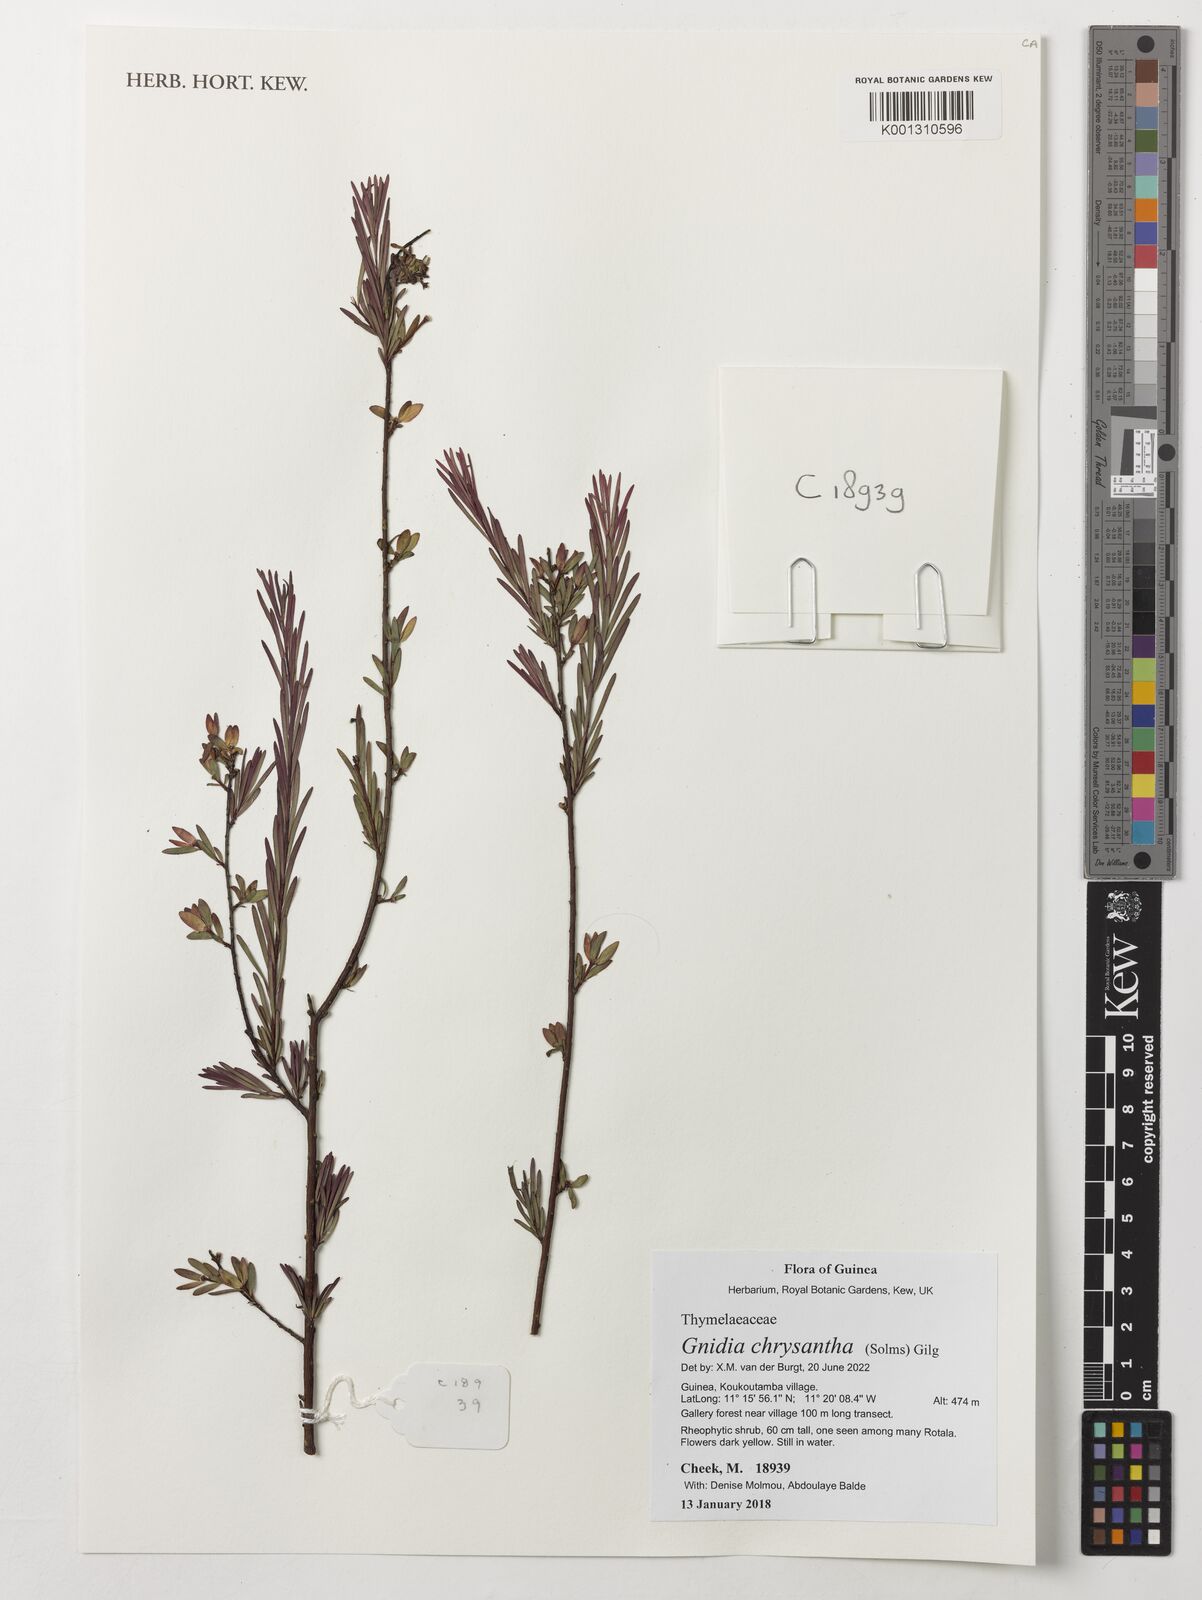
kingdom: Plantae
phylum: Tracheophyta
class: Magnoliopsida
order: Malvales
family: Thymelaeaceae
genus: Gnidia
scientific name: Gnidia chrysantha
